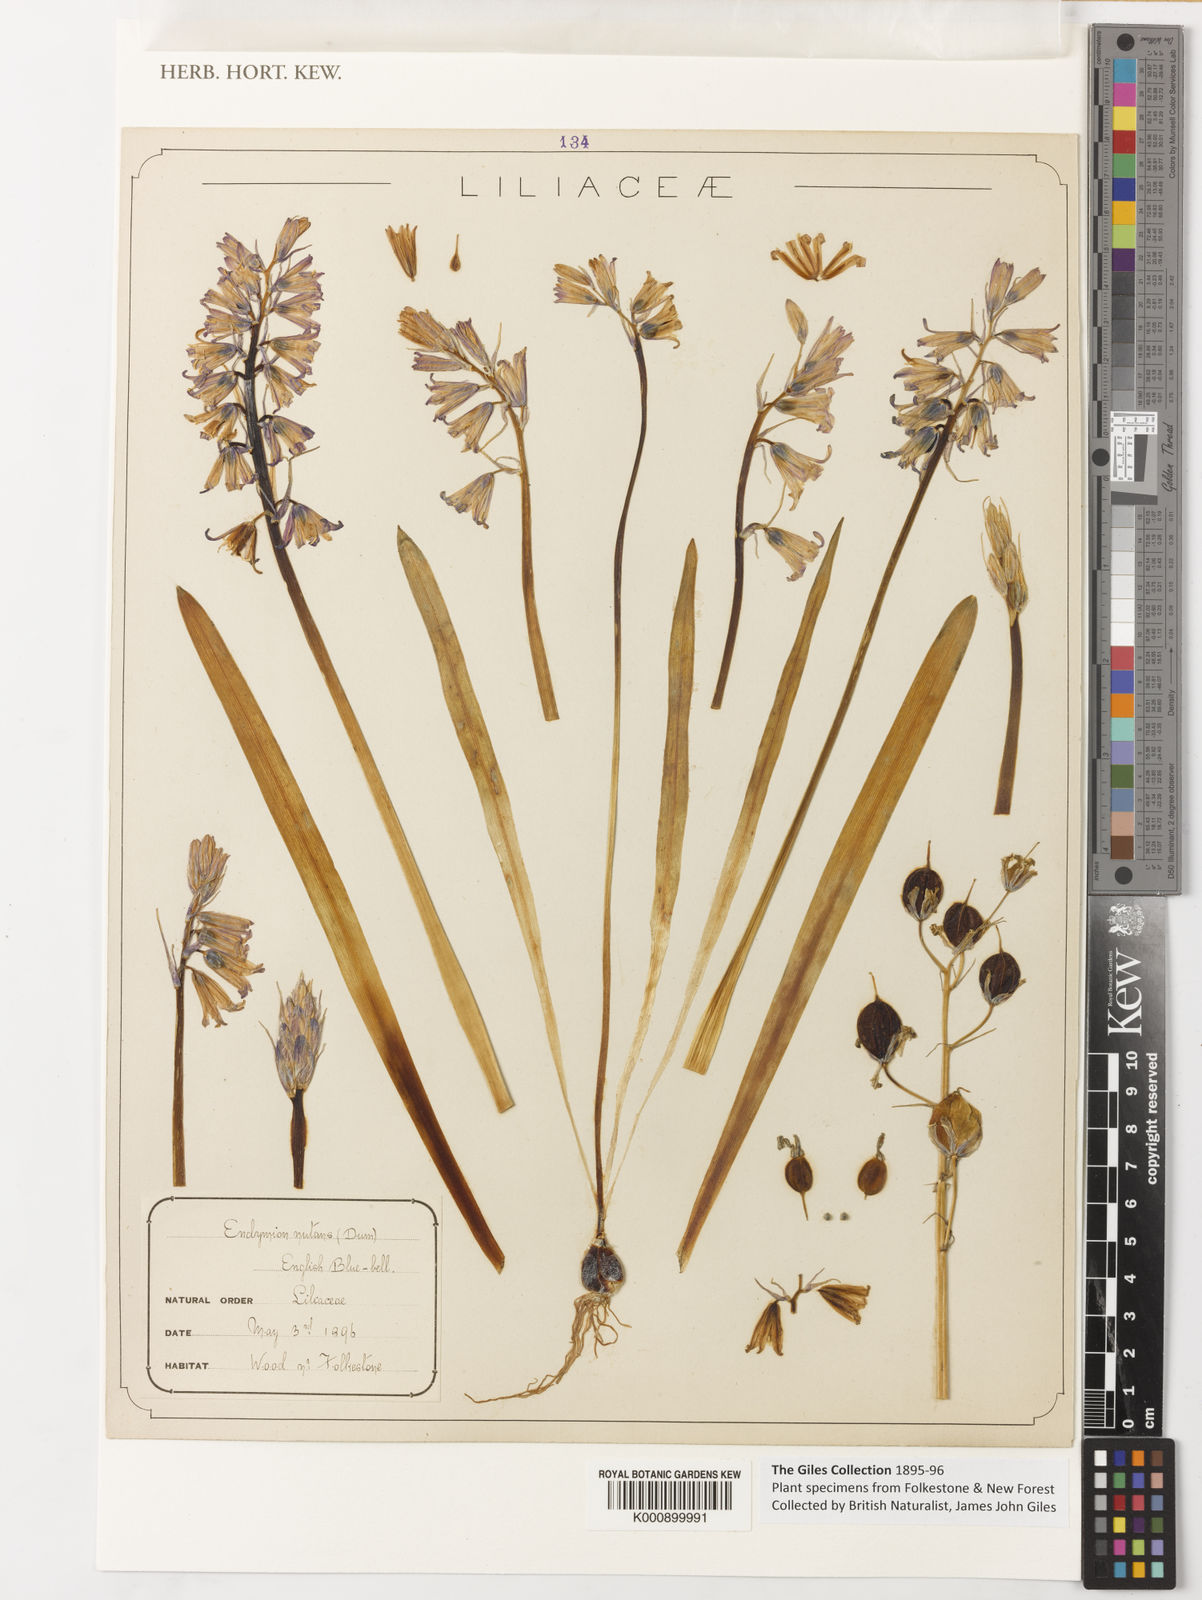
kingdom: Plantae
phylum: Tracheophyta
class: Liliopsida
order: Asparagales
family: Asparagaceae
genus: Hyacinthoides
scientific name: Hyacinthoides non-scripta
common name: Bluebell
